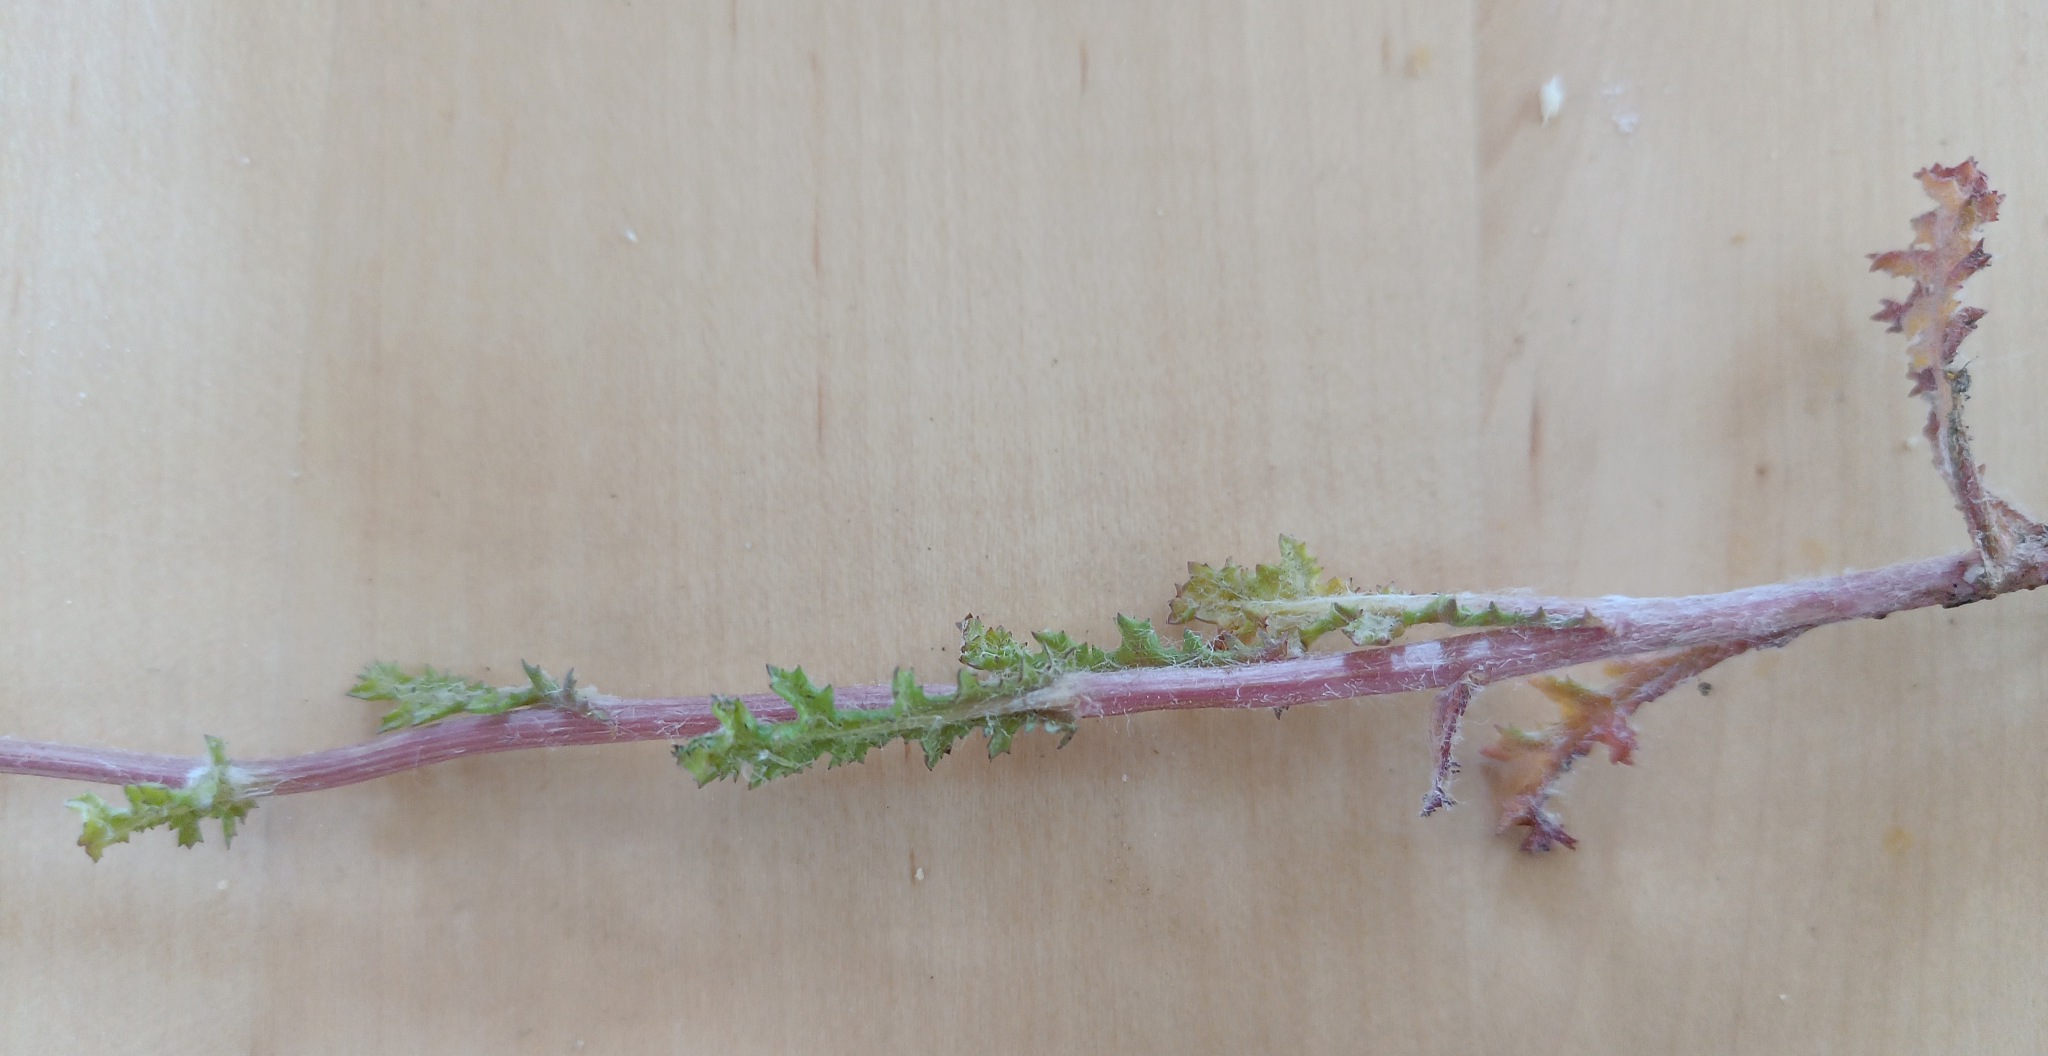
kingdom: Plantae
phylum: Tracheophyta
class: Magnoliopsida
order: Asterales
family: Asteraceae
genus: Senecio
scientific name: Senecio leucanthemifolius
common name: Vår-brandbæger
